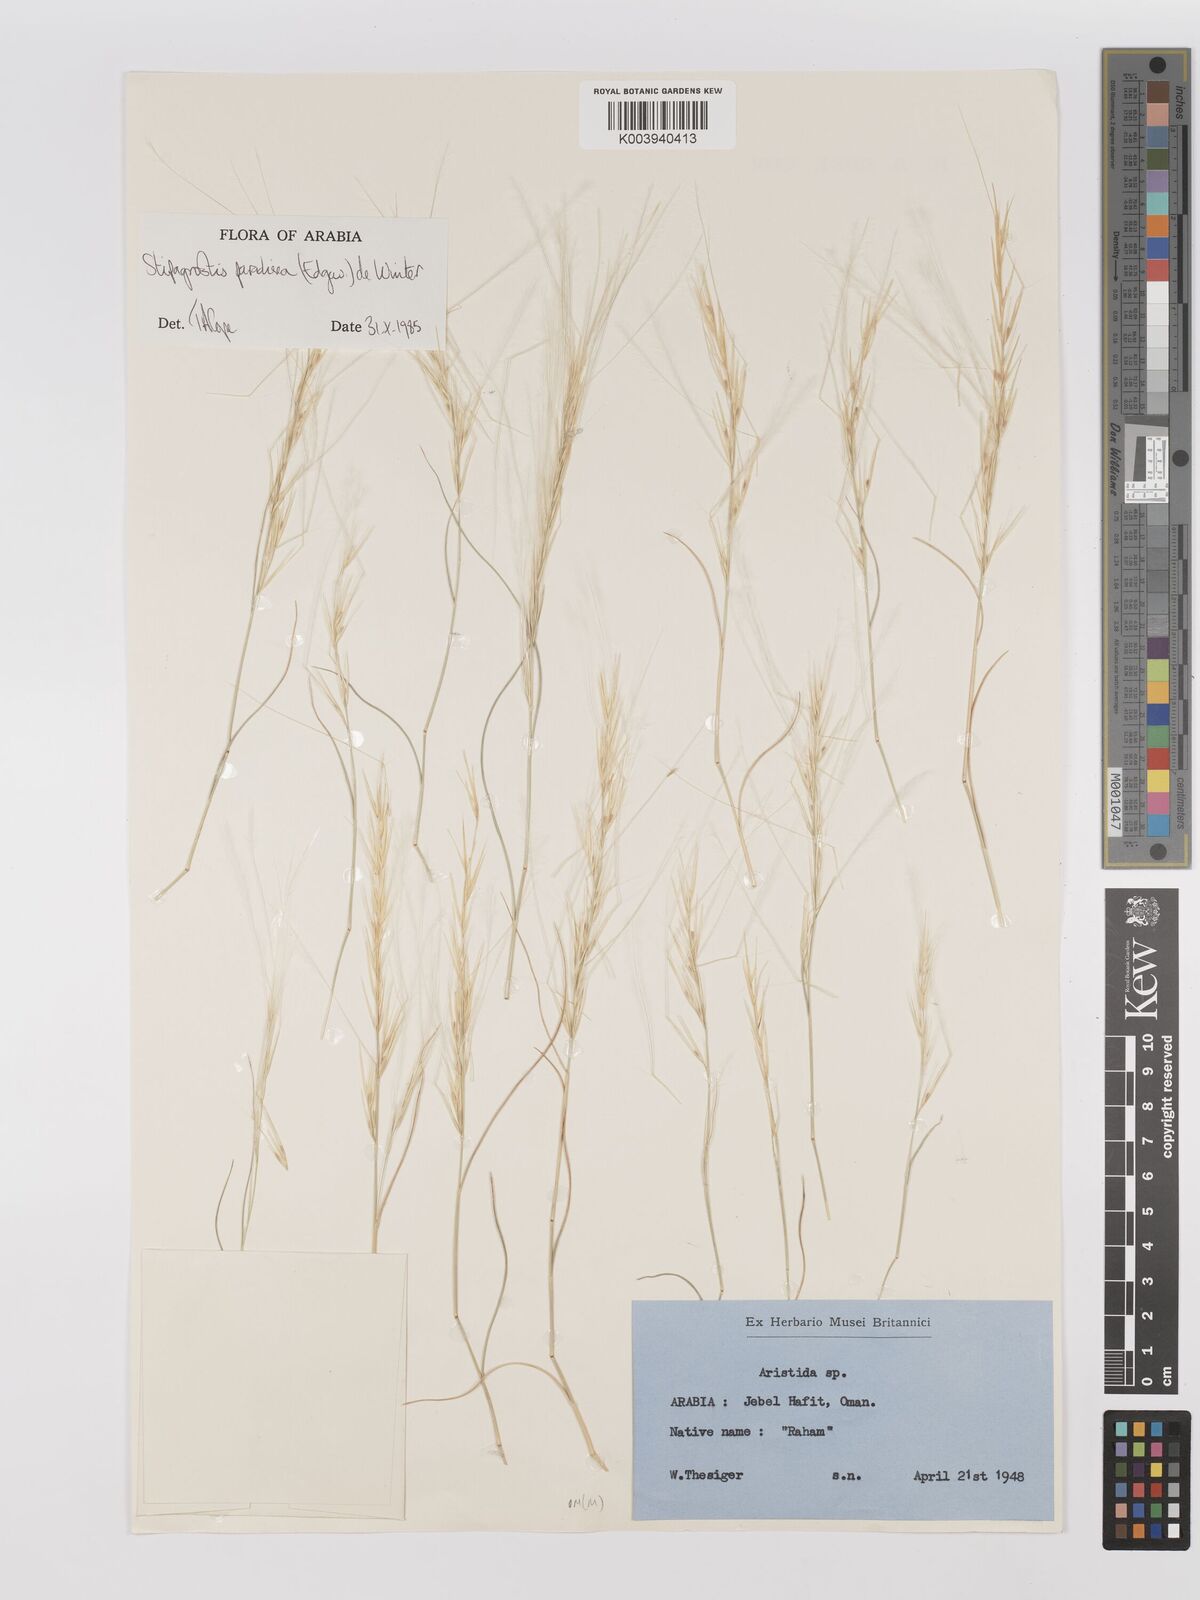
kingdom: Plantae
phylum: Tracheophyta
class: Liliopsida
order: Poales
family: Poaceae
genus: Stipagrostis
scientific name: Stipagrostis paradisea
